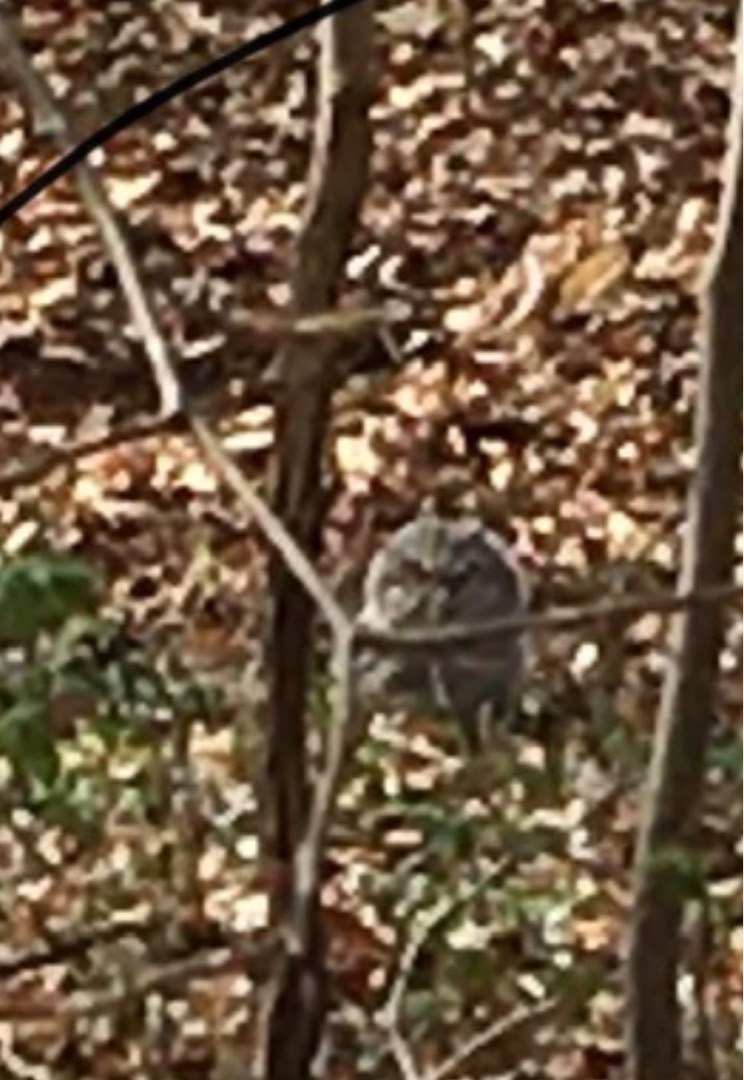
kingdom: Animalia
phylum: Chordata
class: Aves
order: Strigiformes
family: Strigidae
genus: Strix
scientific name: Strix aluco
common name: Natugle
